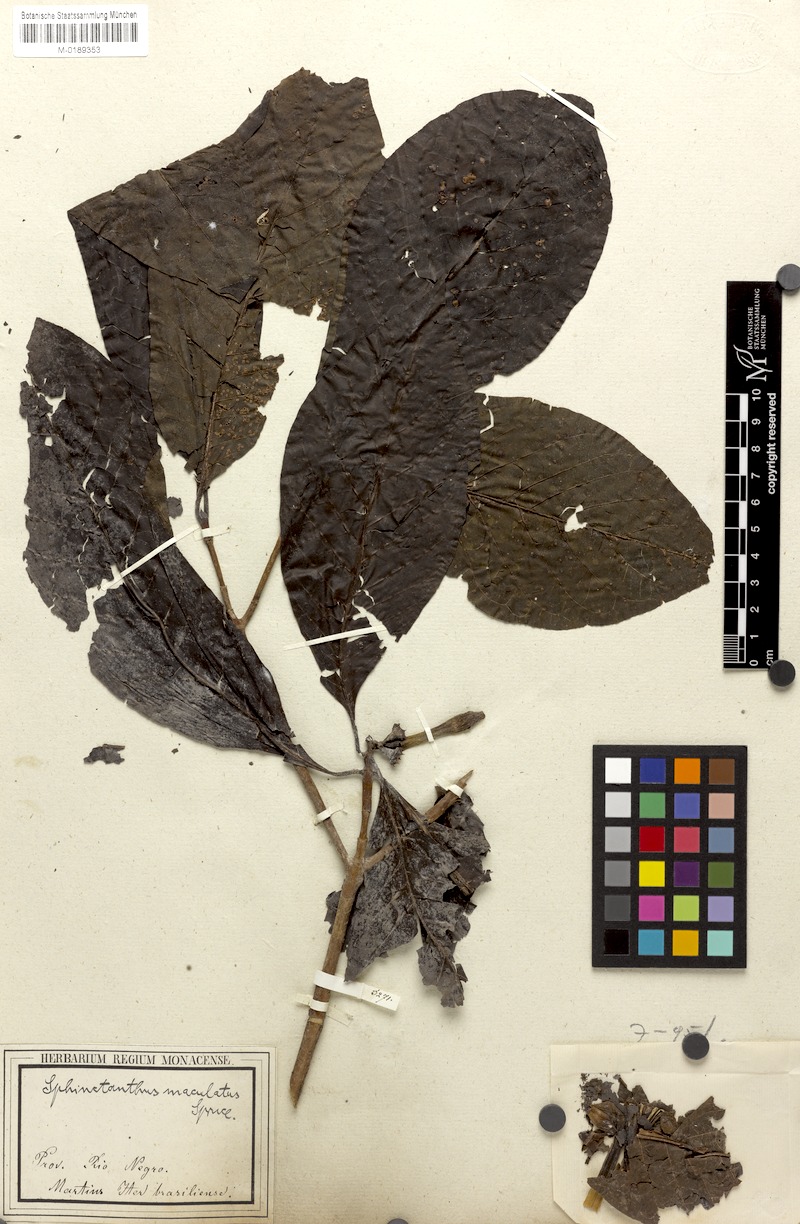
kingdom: Plantae
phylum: Tracheophyta
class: Magnoliopsida
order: Gentianales
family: Rubiaceae
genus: Sphinctanthus
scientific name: Sphinctanthus maculatus
